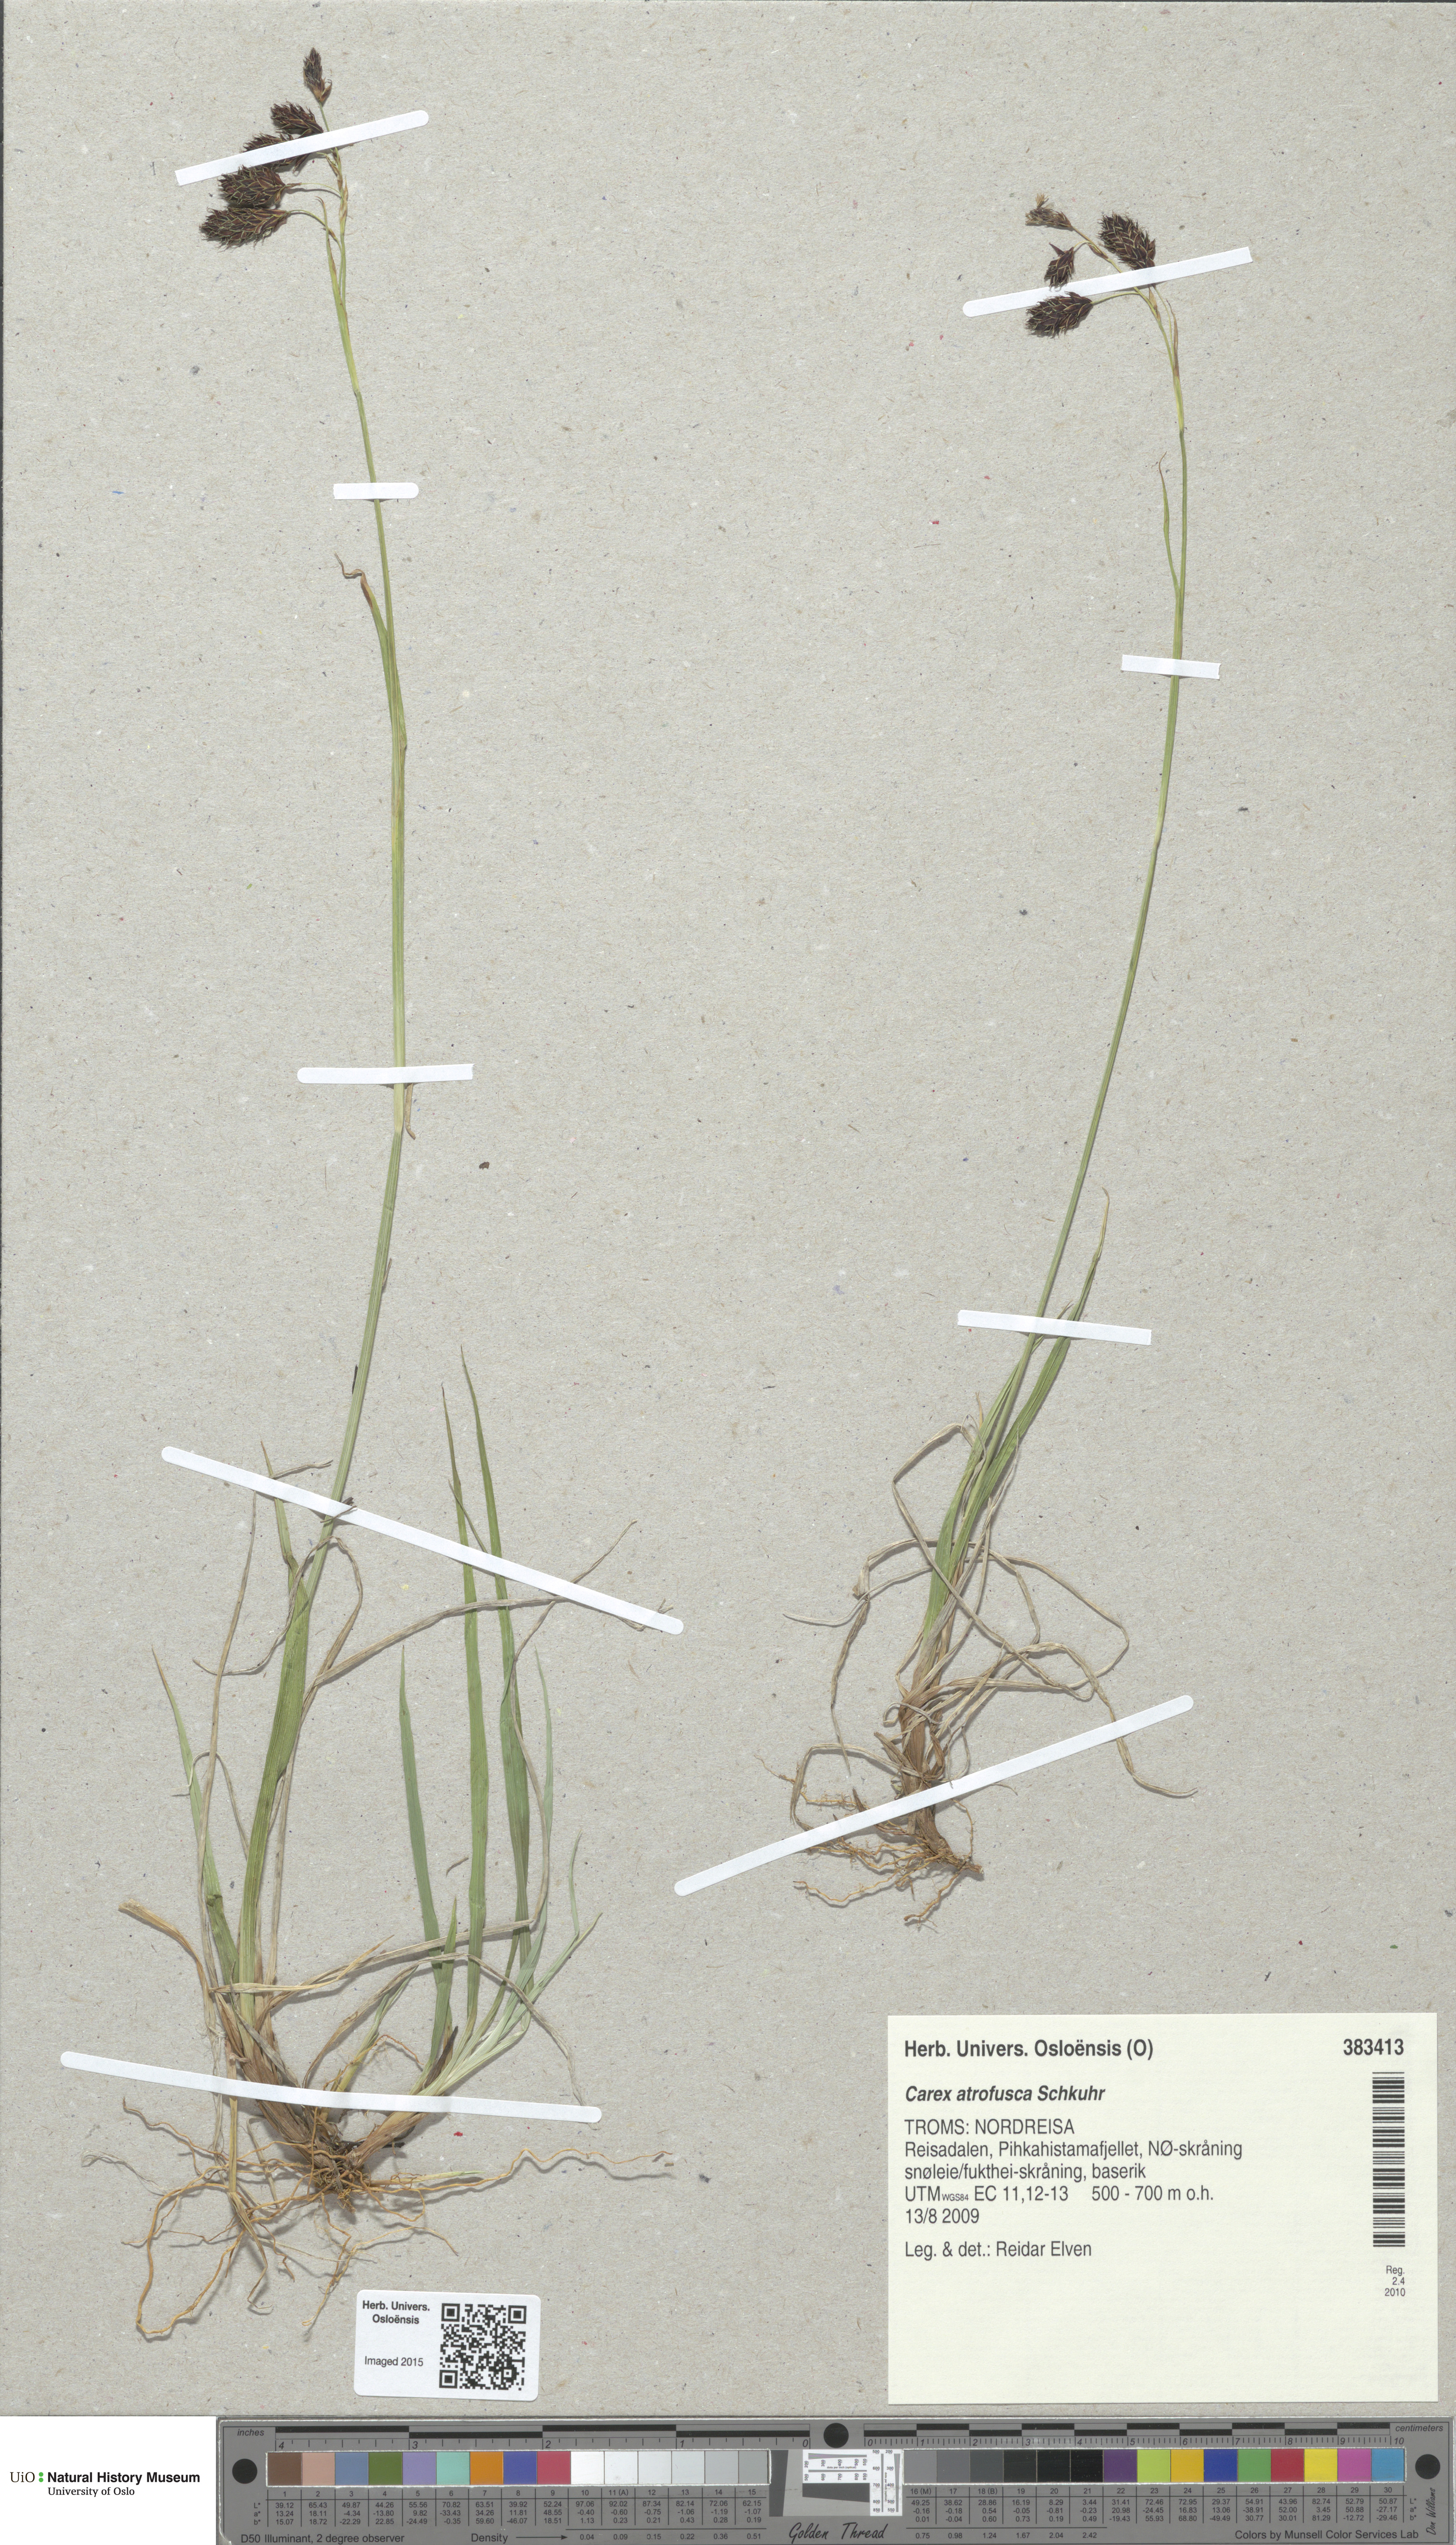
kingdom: Plantae
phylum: Tracheophyta
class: Liliopsida
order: Poales
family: Cyperaceae
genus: Carex
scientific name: Carex atrofusca
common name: Scorched alpine-sedge
